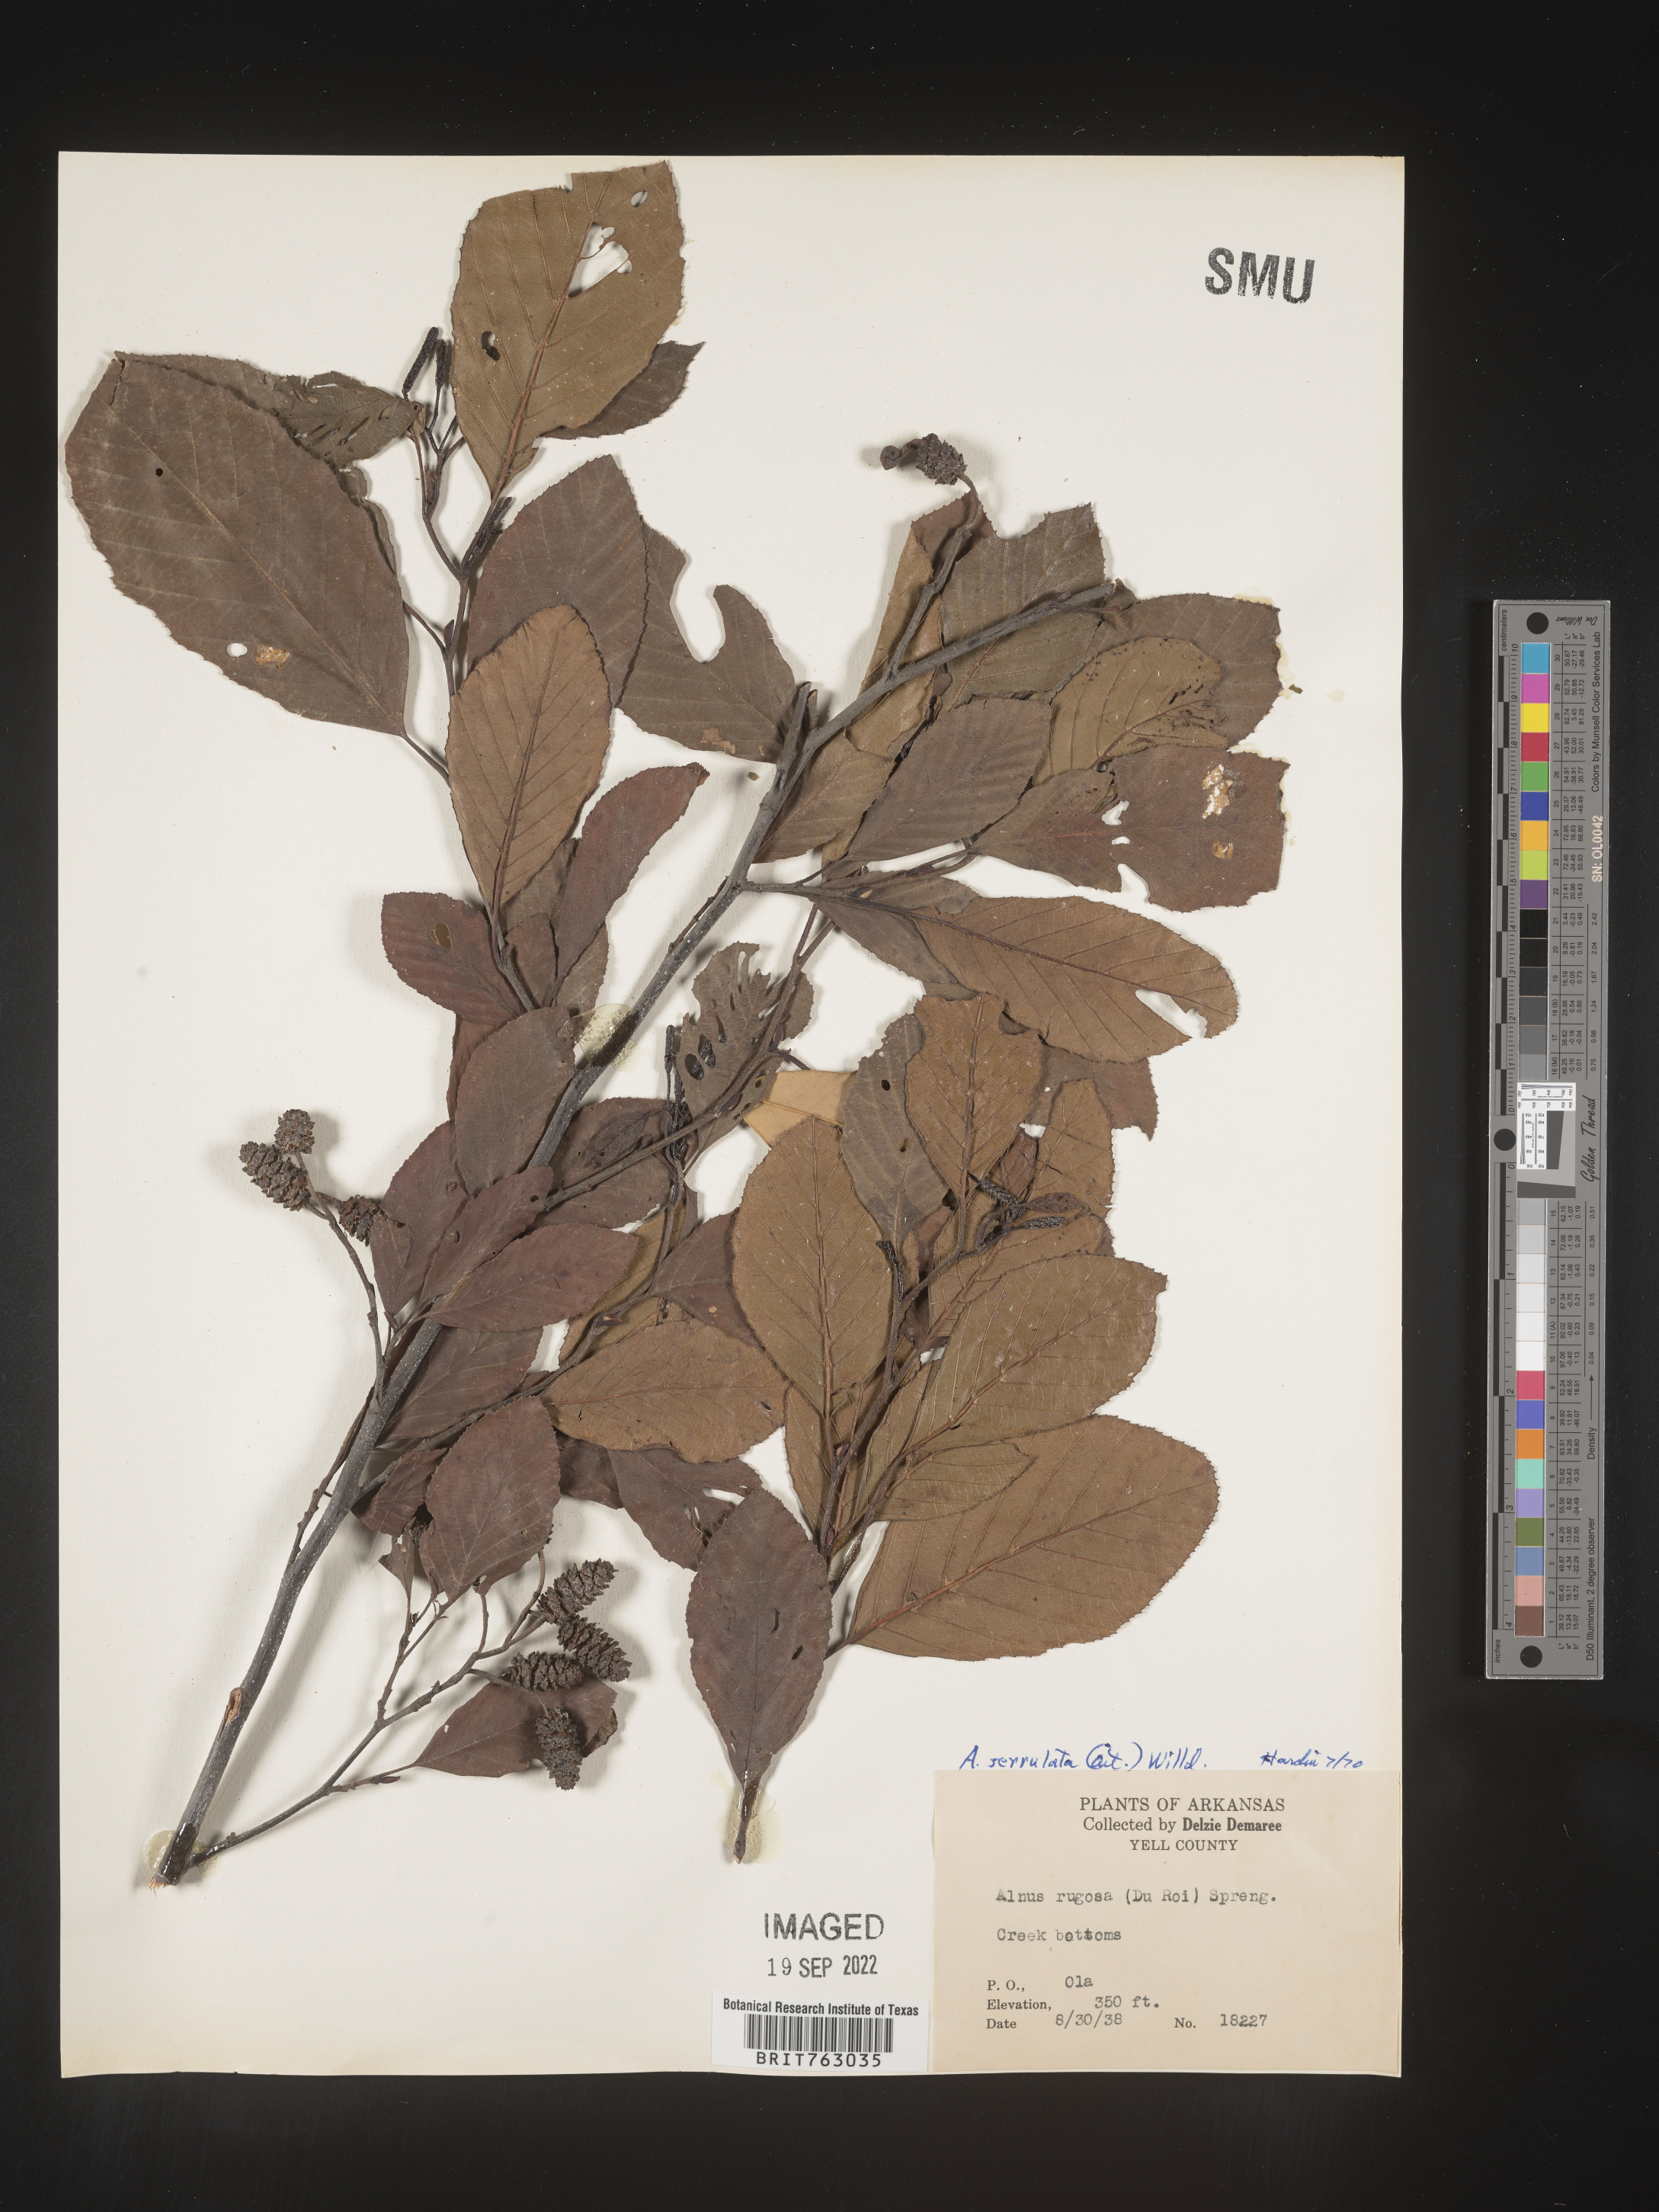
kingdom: Plantae
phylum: Tracheophyta
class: Magnoliopsida
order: Fagales
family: Betulaceae
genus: Alnus
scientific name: Alnus serrulata
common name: Hazel alder
